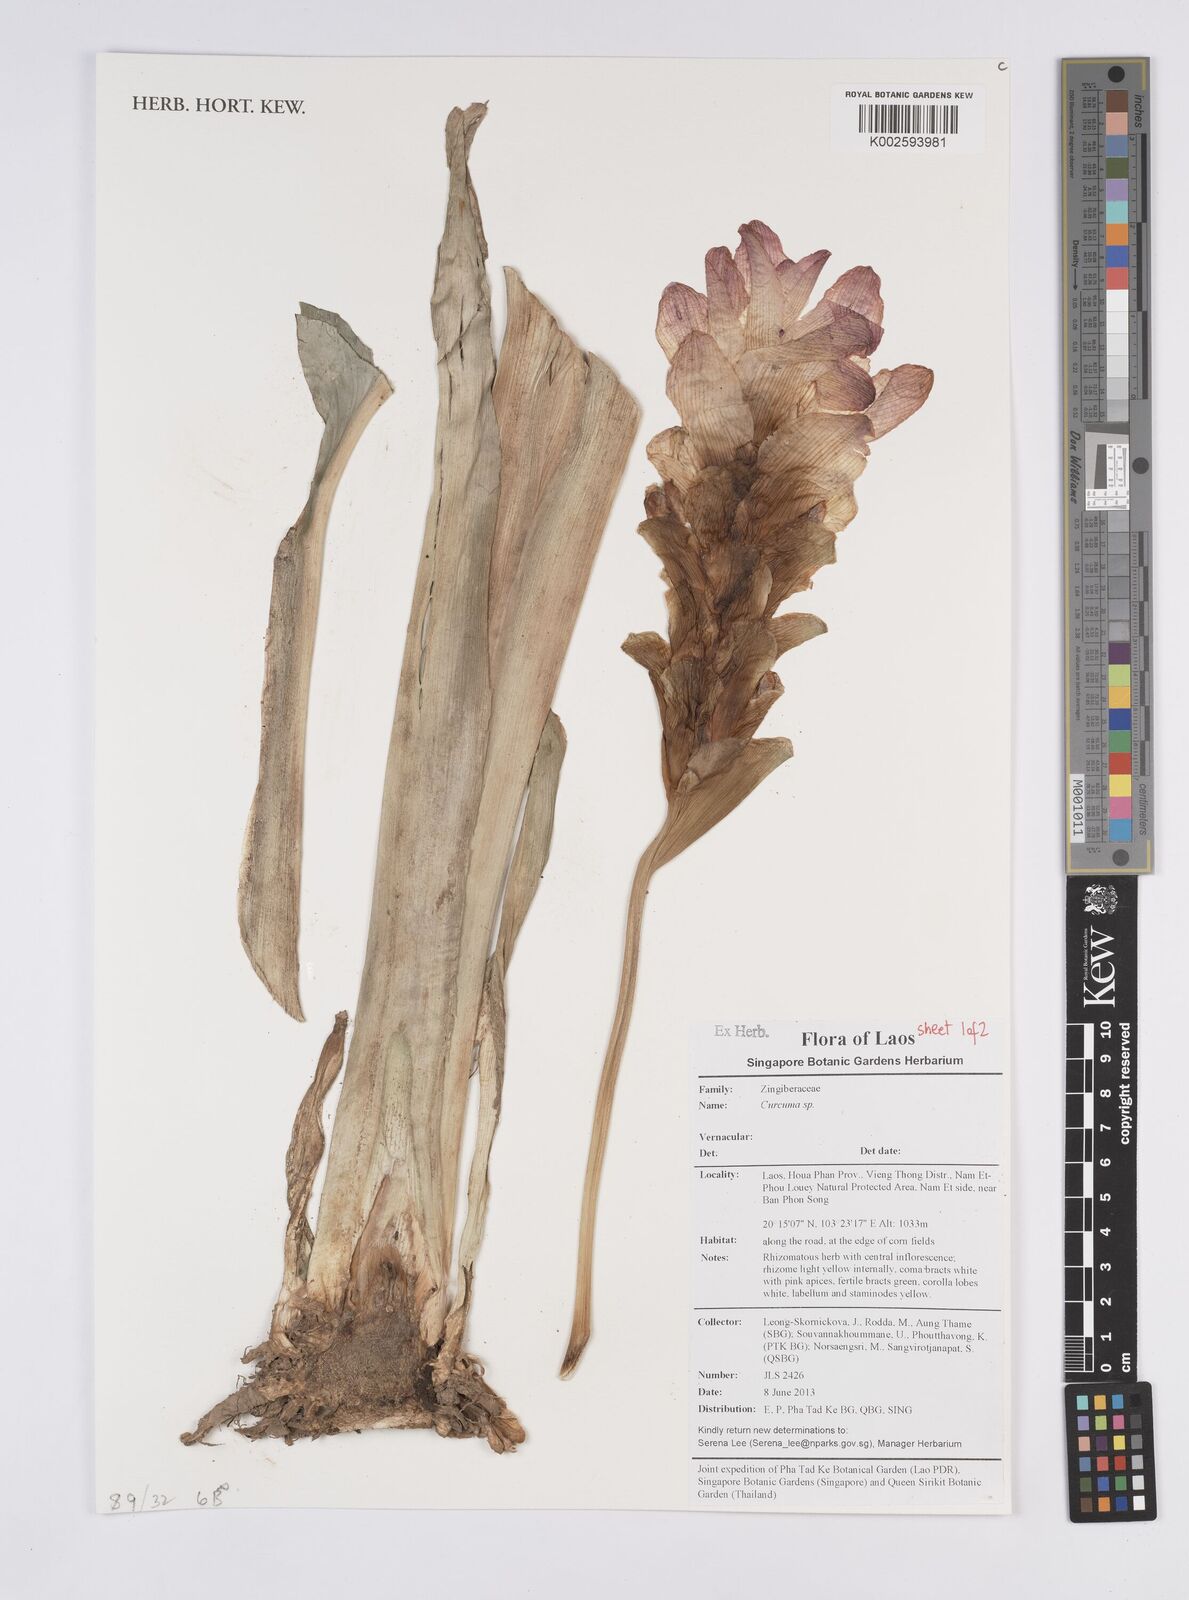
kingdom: Plantae
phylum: Tracheophyta
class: Liliopsida
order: Zingiberales
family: Zingiberaceae
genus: Curcuma
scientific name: Curcuma
